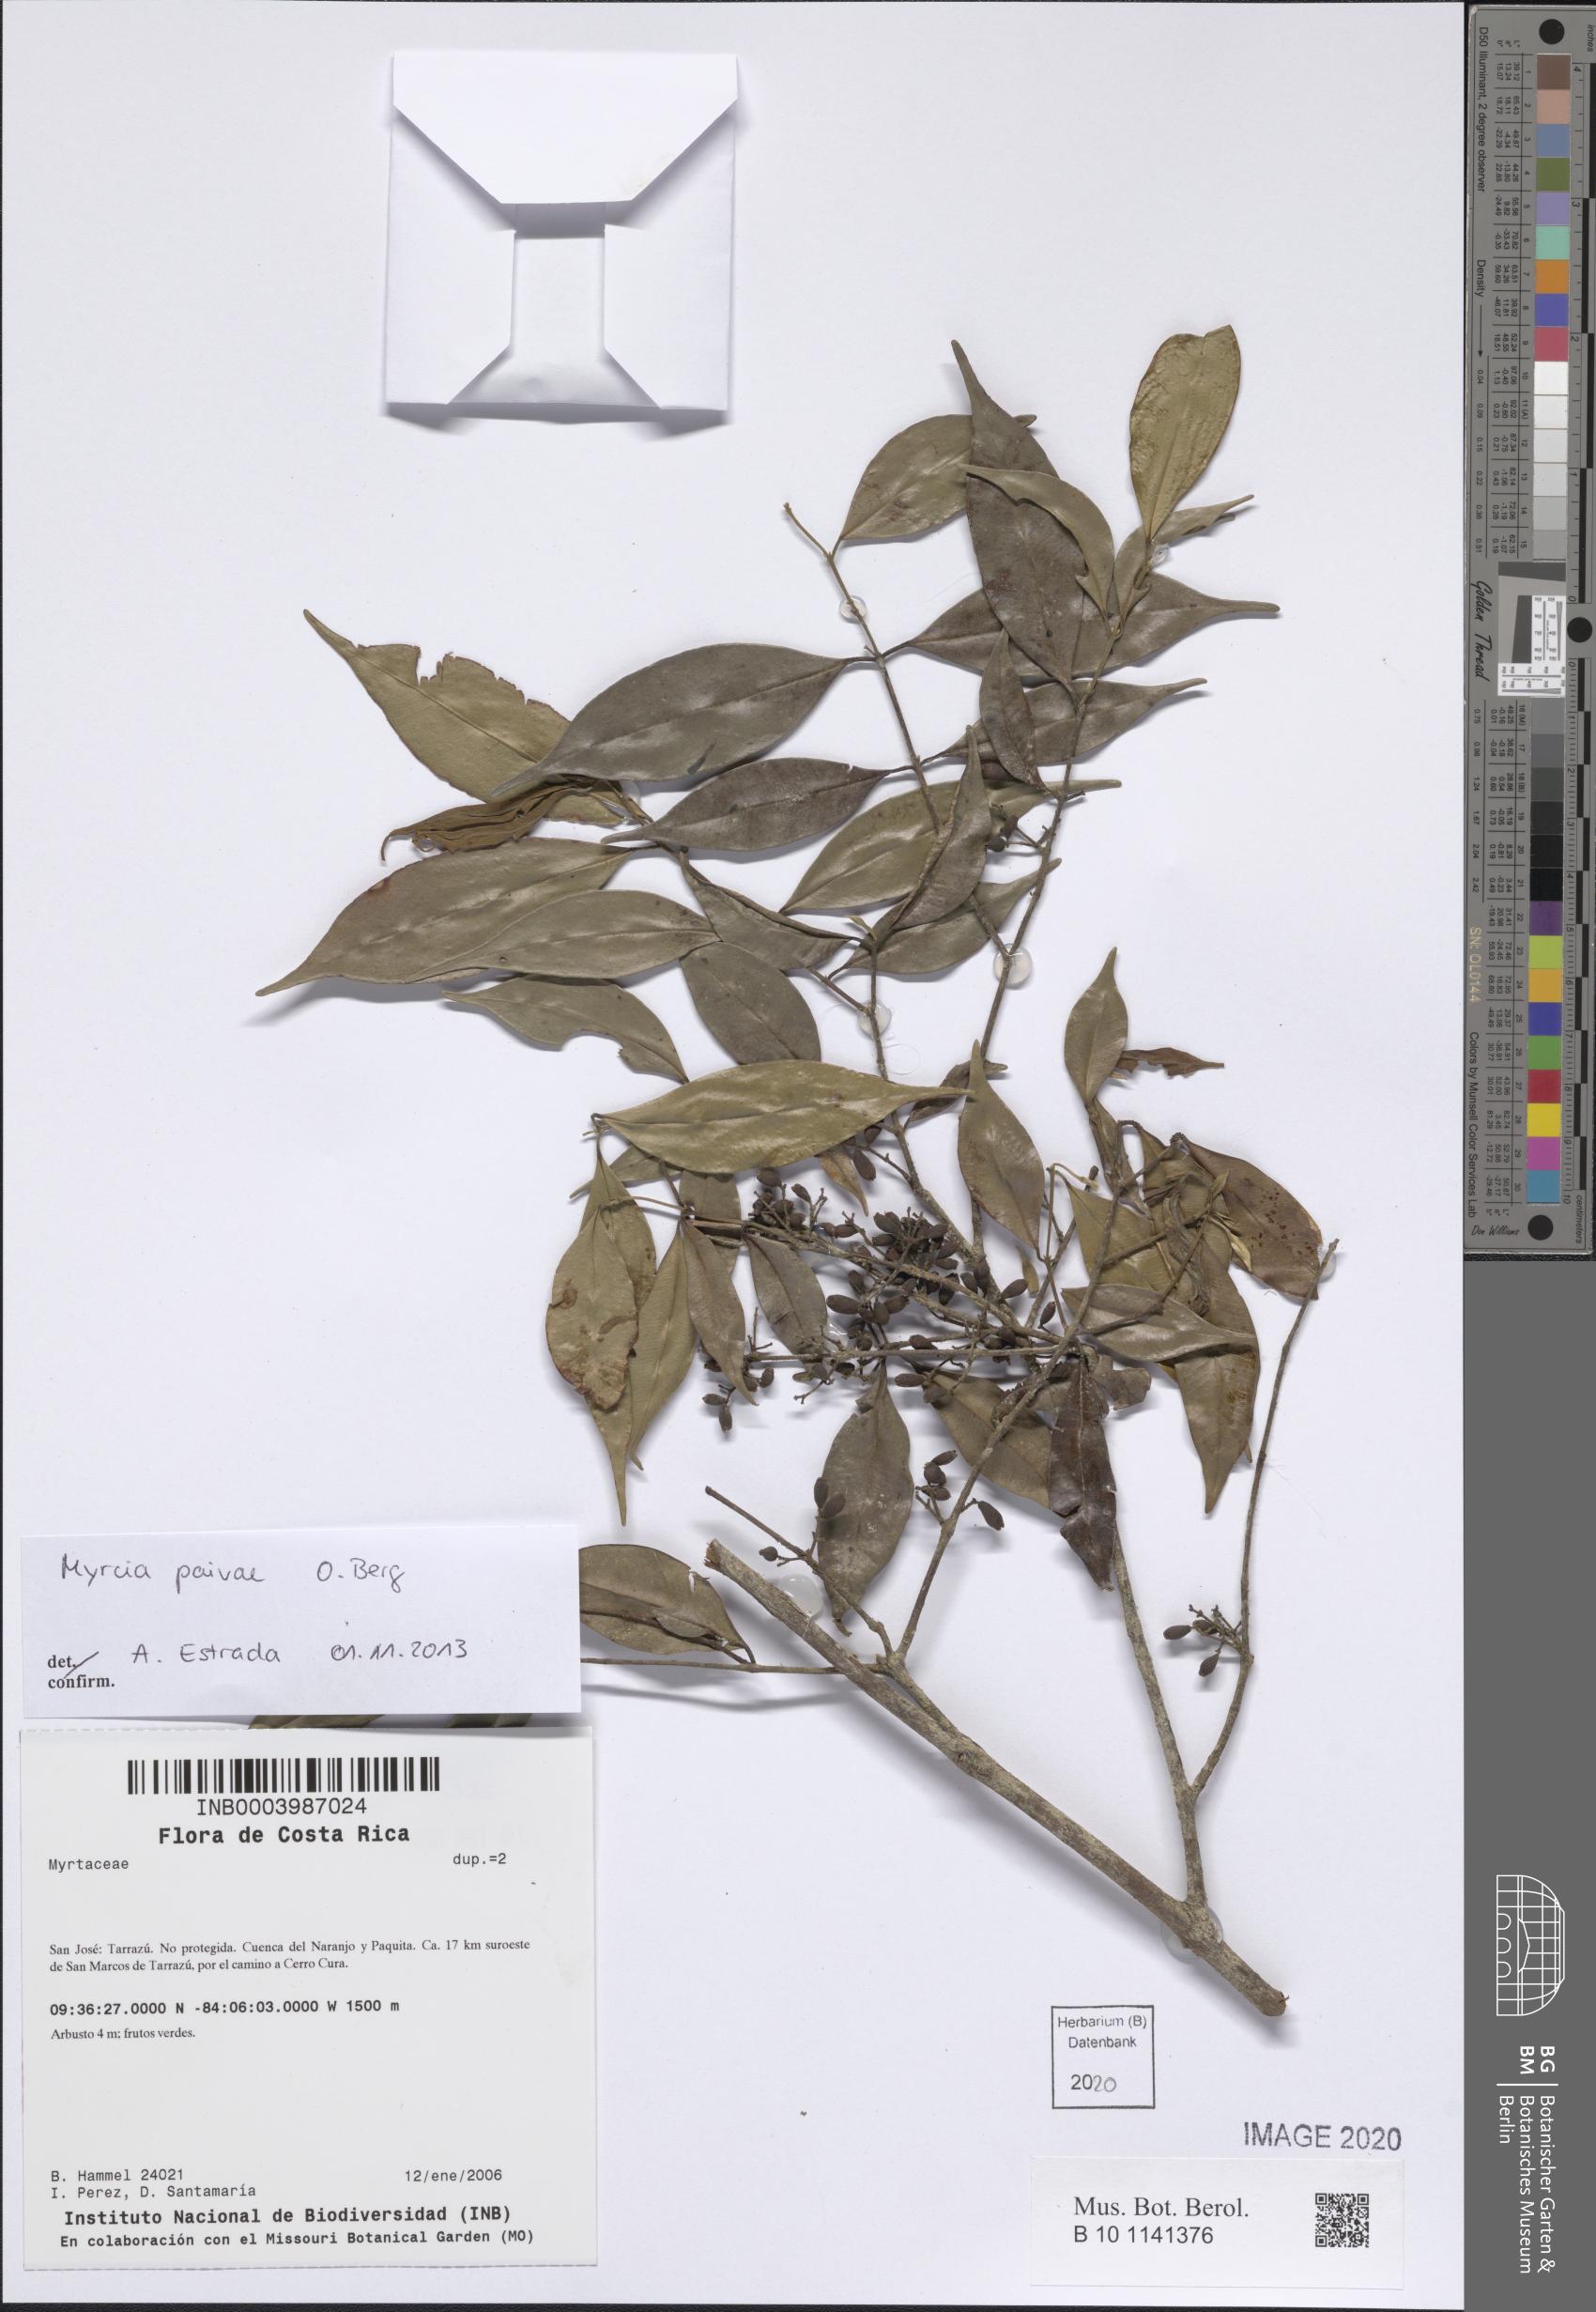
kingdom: Plantae
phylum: Tracheophyta
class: Magnoliopsida
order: Myrtales
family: Myrtaceae
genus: Myrcia
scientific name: Myrcia paivae
